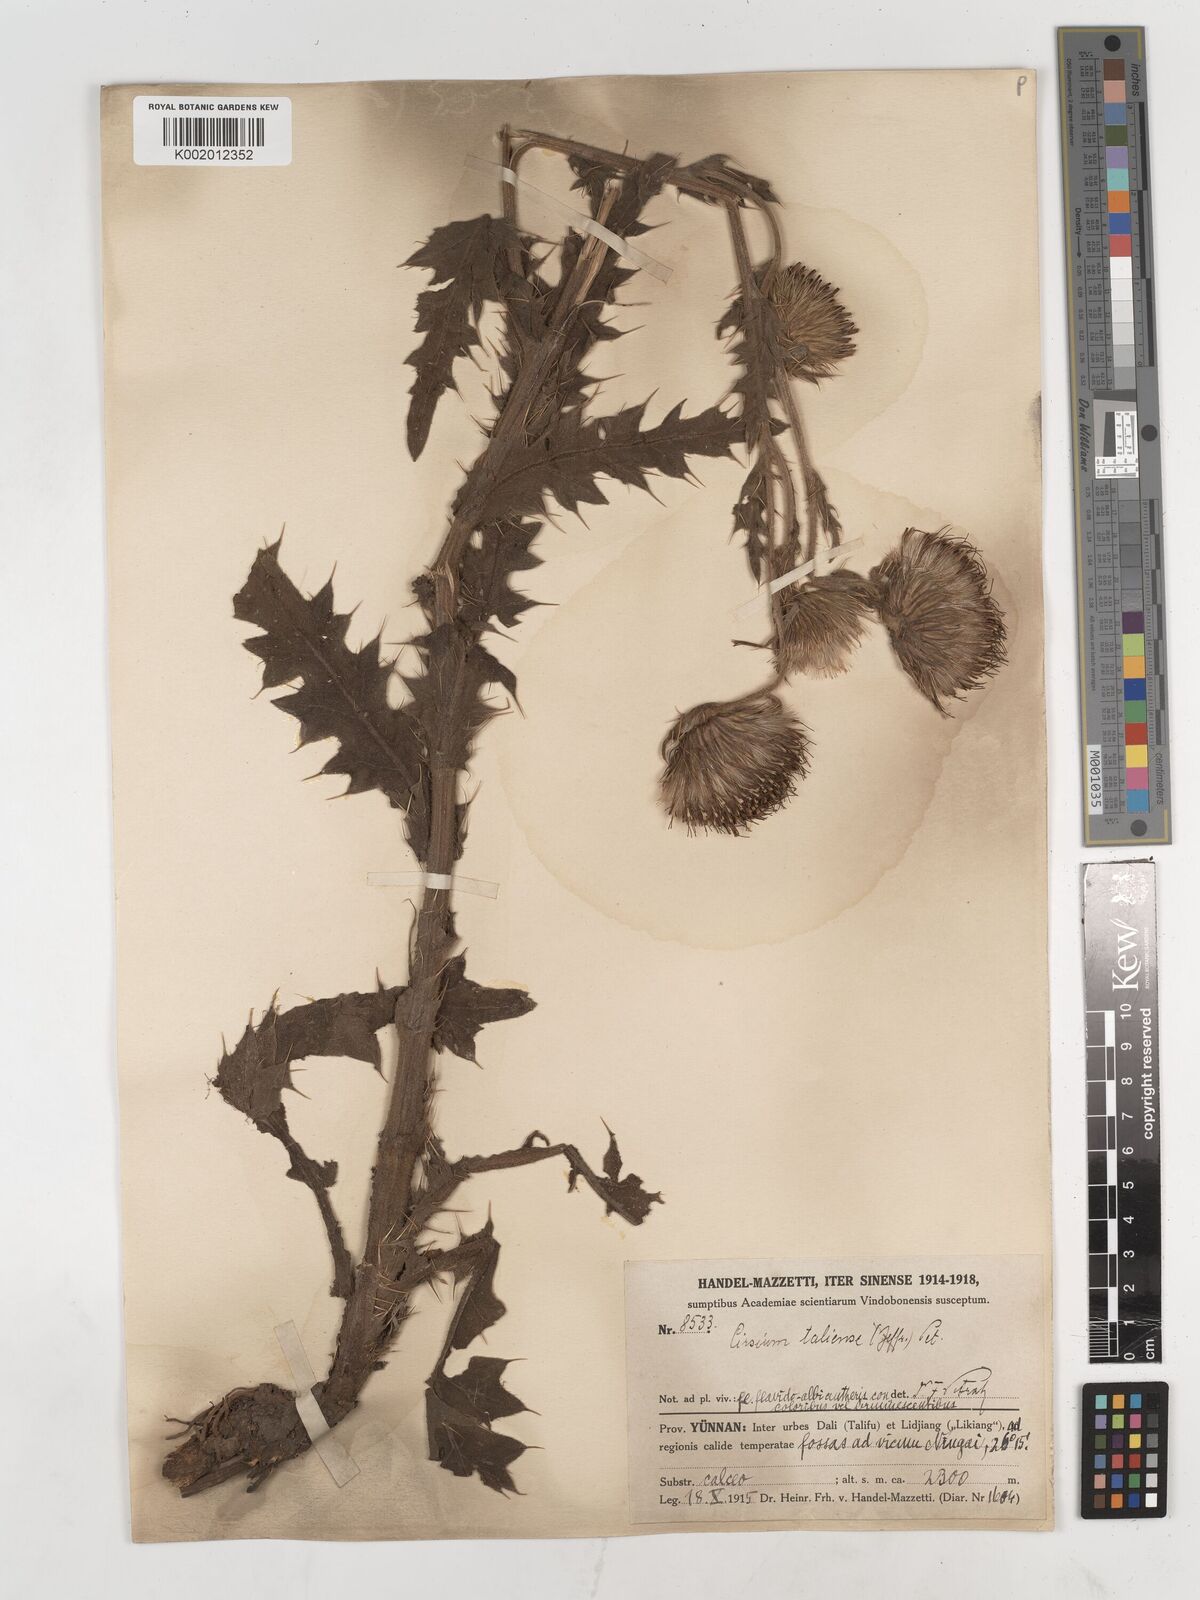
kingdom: Plantae
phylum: Tracheophyta
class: Magnoliopsida
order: Asterales
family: Asteraceae
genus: Lophiolepis
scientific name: Lophiolepis chlorolepis
